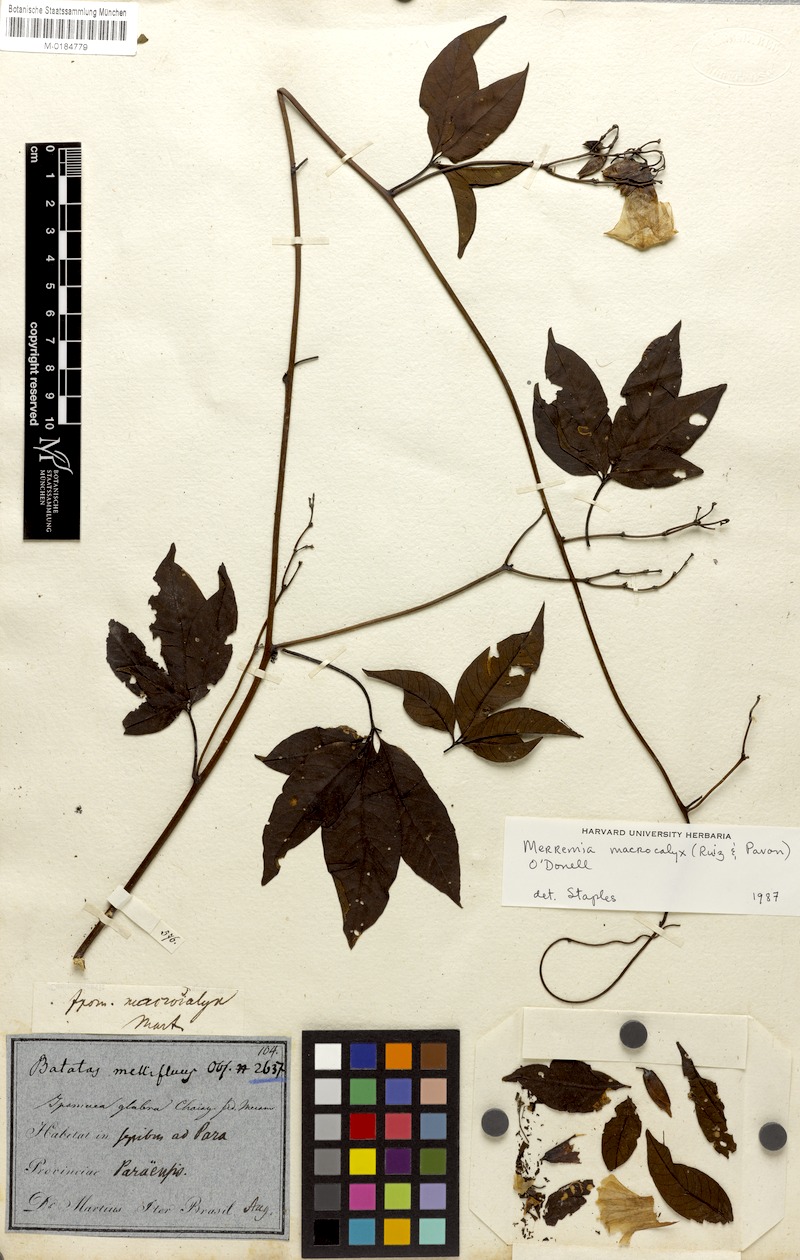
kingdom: Plantae
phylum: Tracheophyta
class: Magnoliopsida
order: Solanales
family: Convolvulaceae
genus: Distimake
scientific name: Distimake macrocalyx
